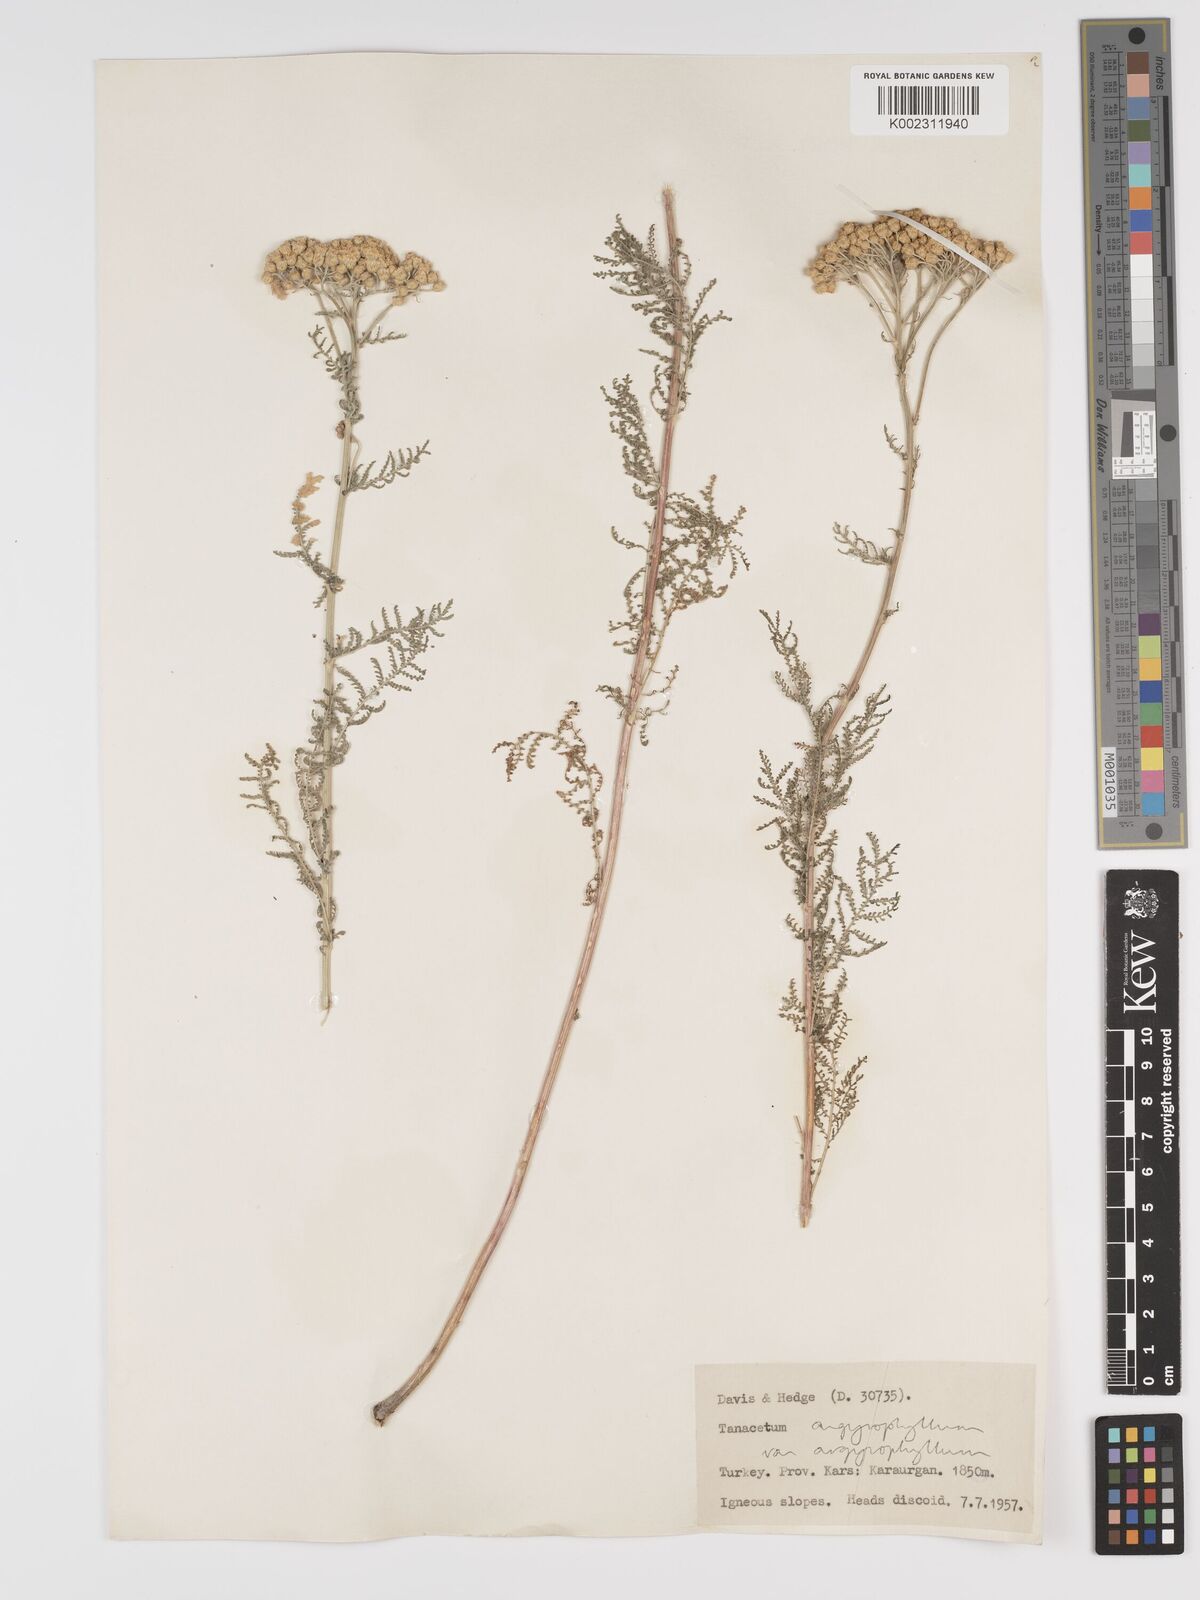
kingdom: Plantae
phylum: Tracheophyta
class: Magnoliopsida
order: Asterales
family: Asteraceae
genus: Tanacetum
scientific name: Tanacetum polycephalum
